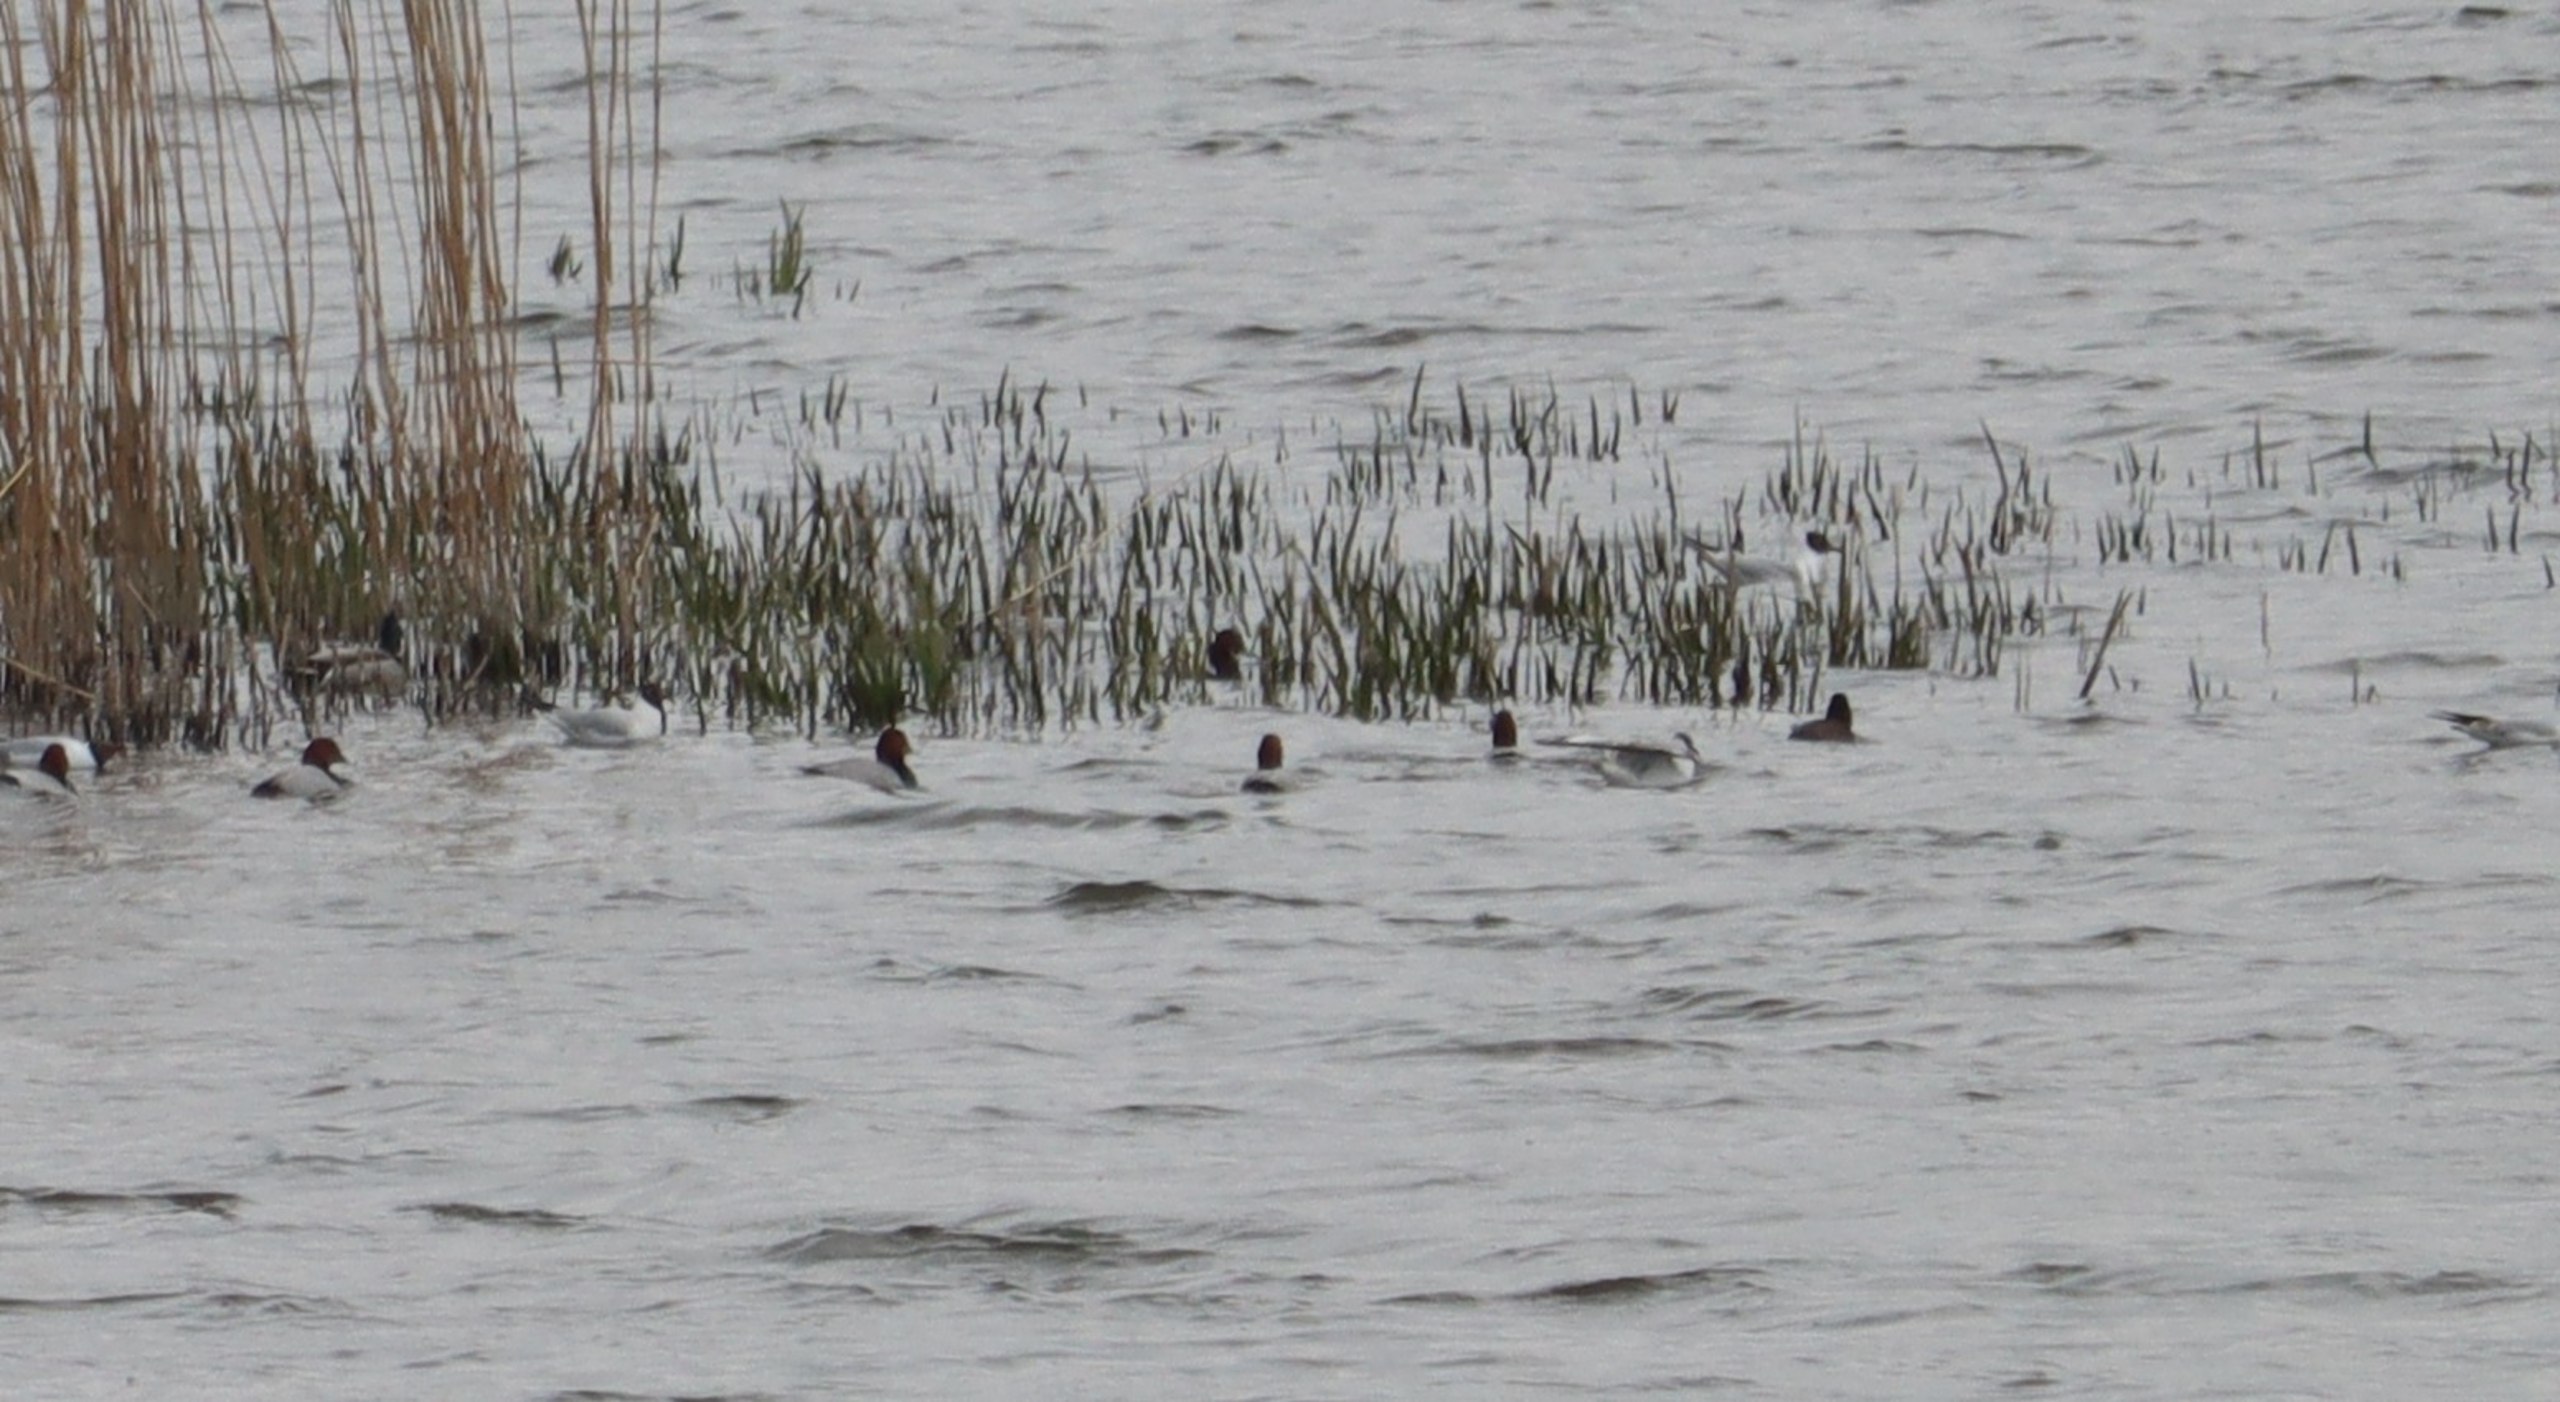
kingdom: Animalia
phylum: Chordata
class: Aves
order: Anseriformes
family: Anatidae
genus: Aythya
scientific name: Aythya ferina
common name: Taffeland
